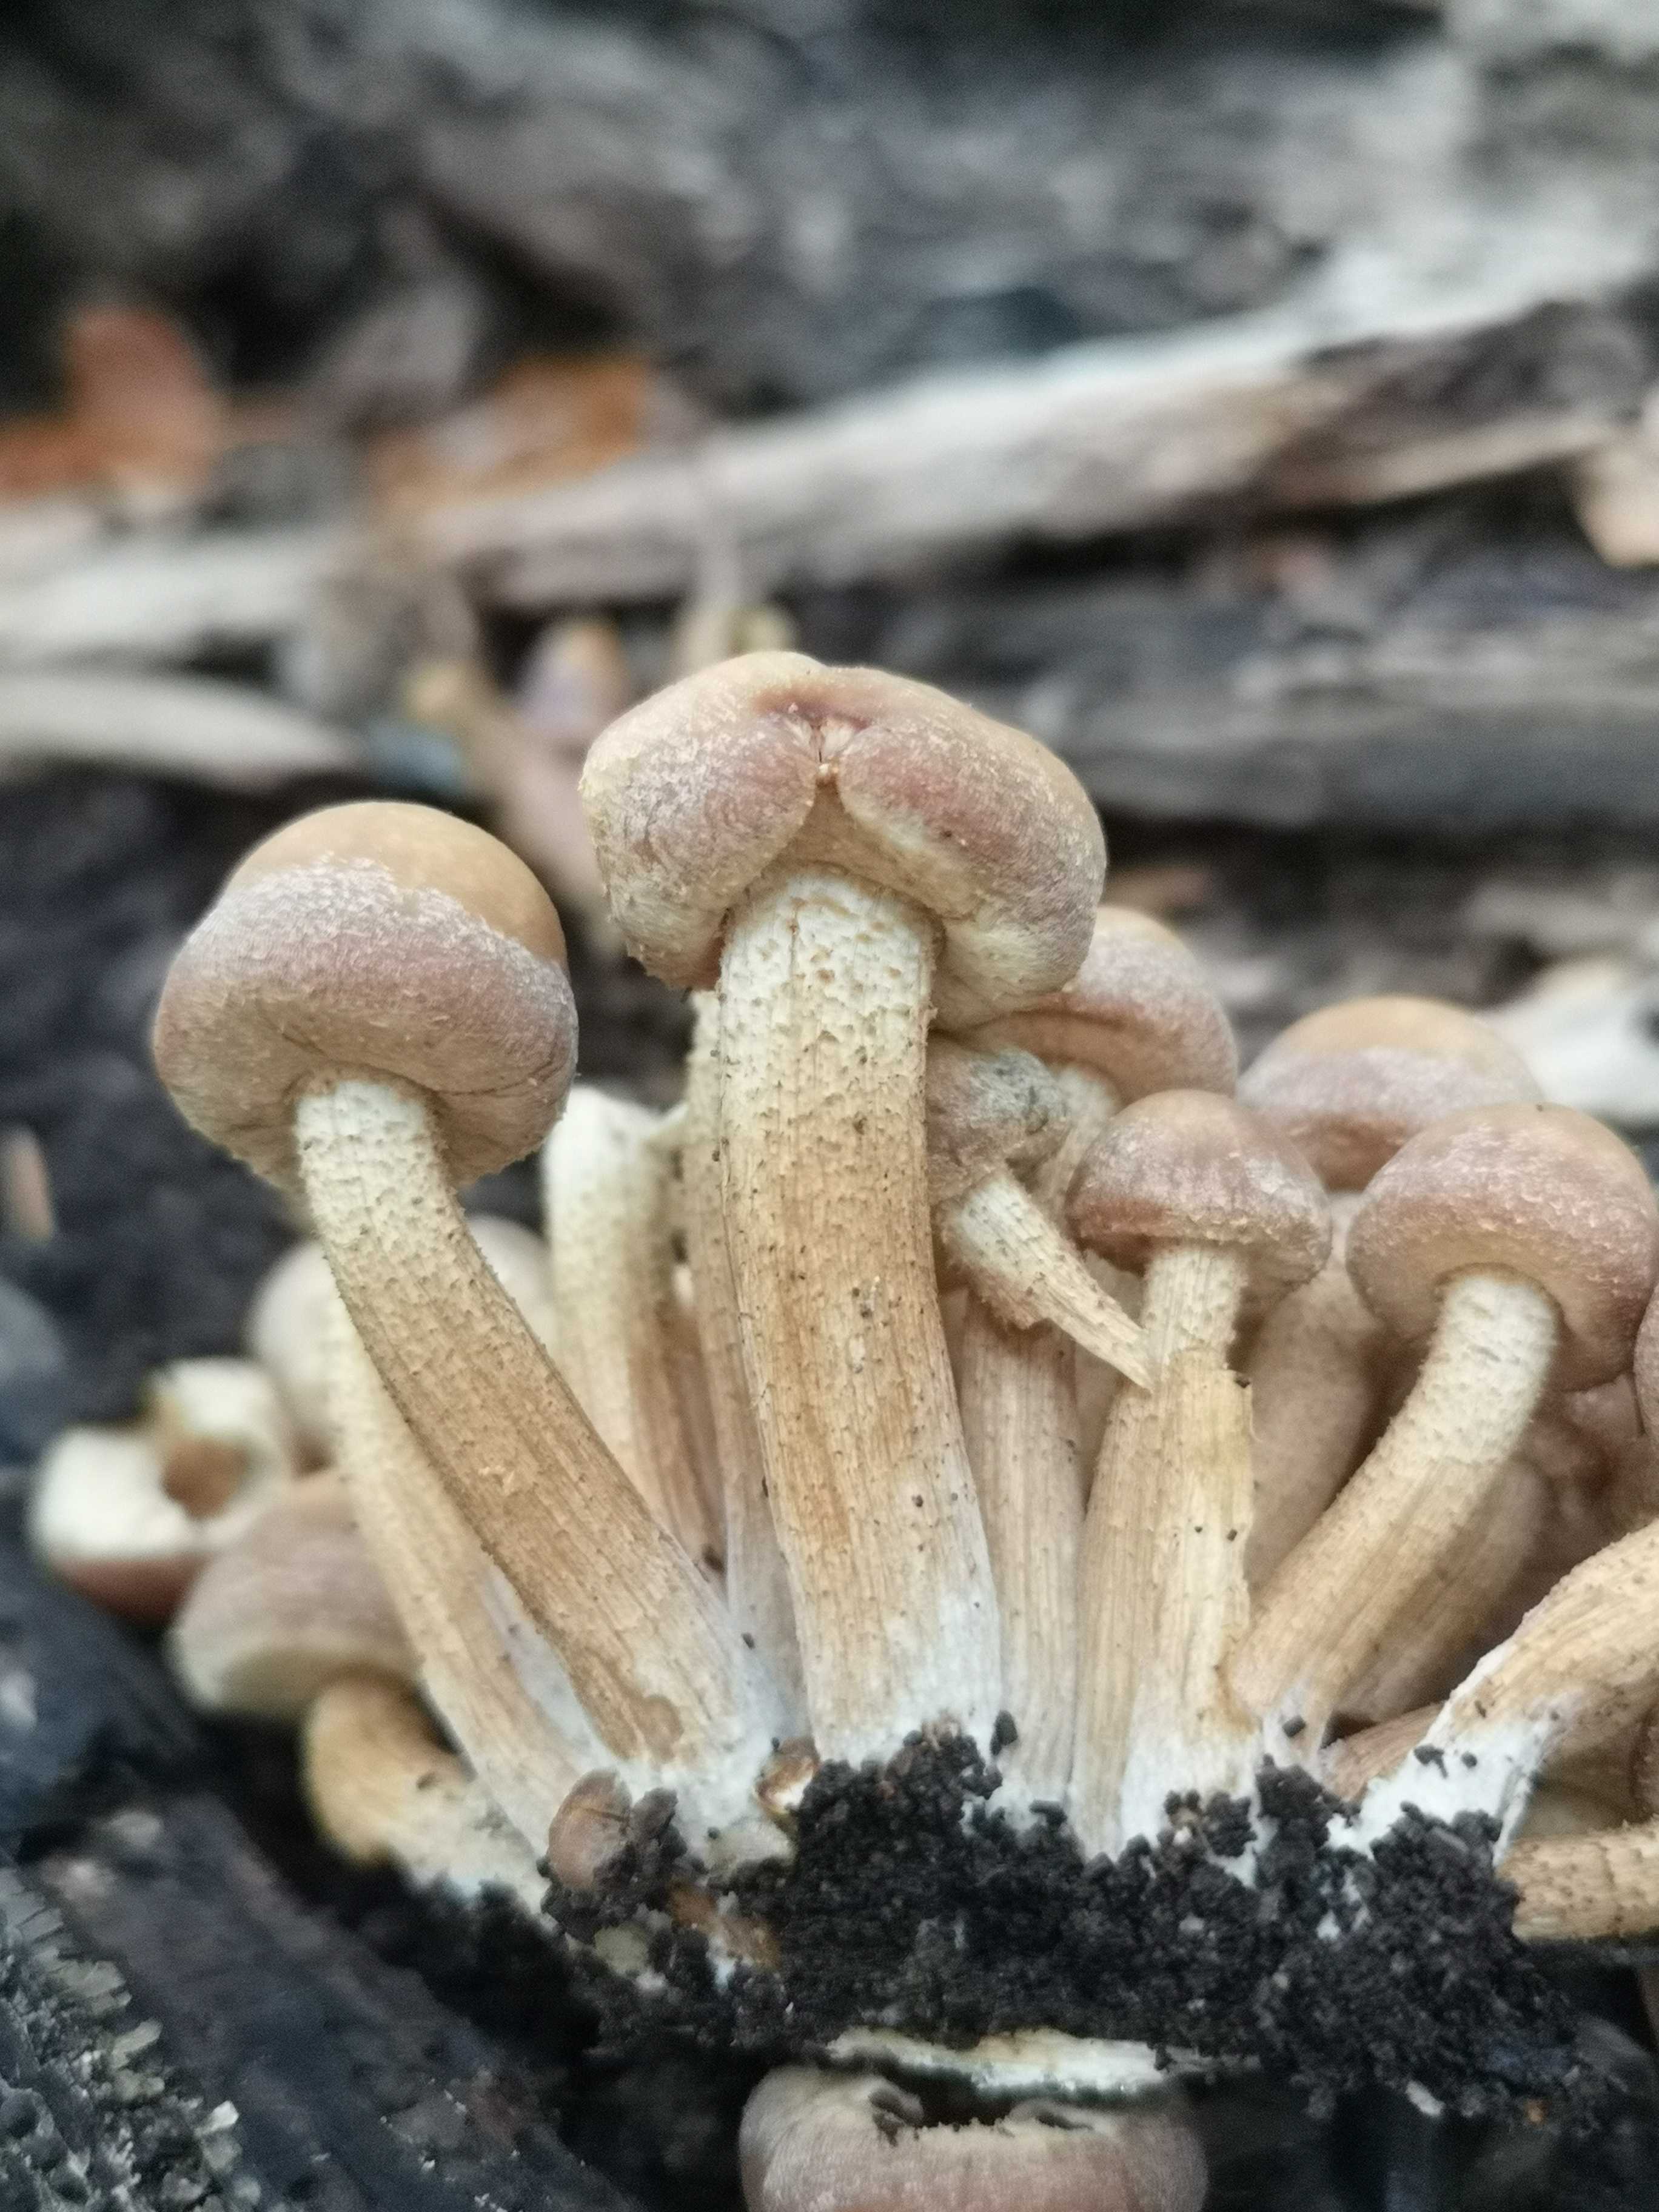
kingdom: Fungi
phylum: Basidiomycota
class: Agaricomycetes
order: Agaricales
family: Strophariaceae
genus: Kuehneromyces
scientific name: Kuehneromyces mutabilis
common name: foranderlig skælhat
